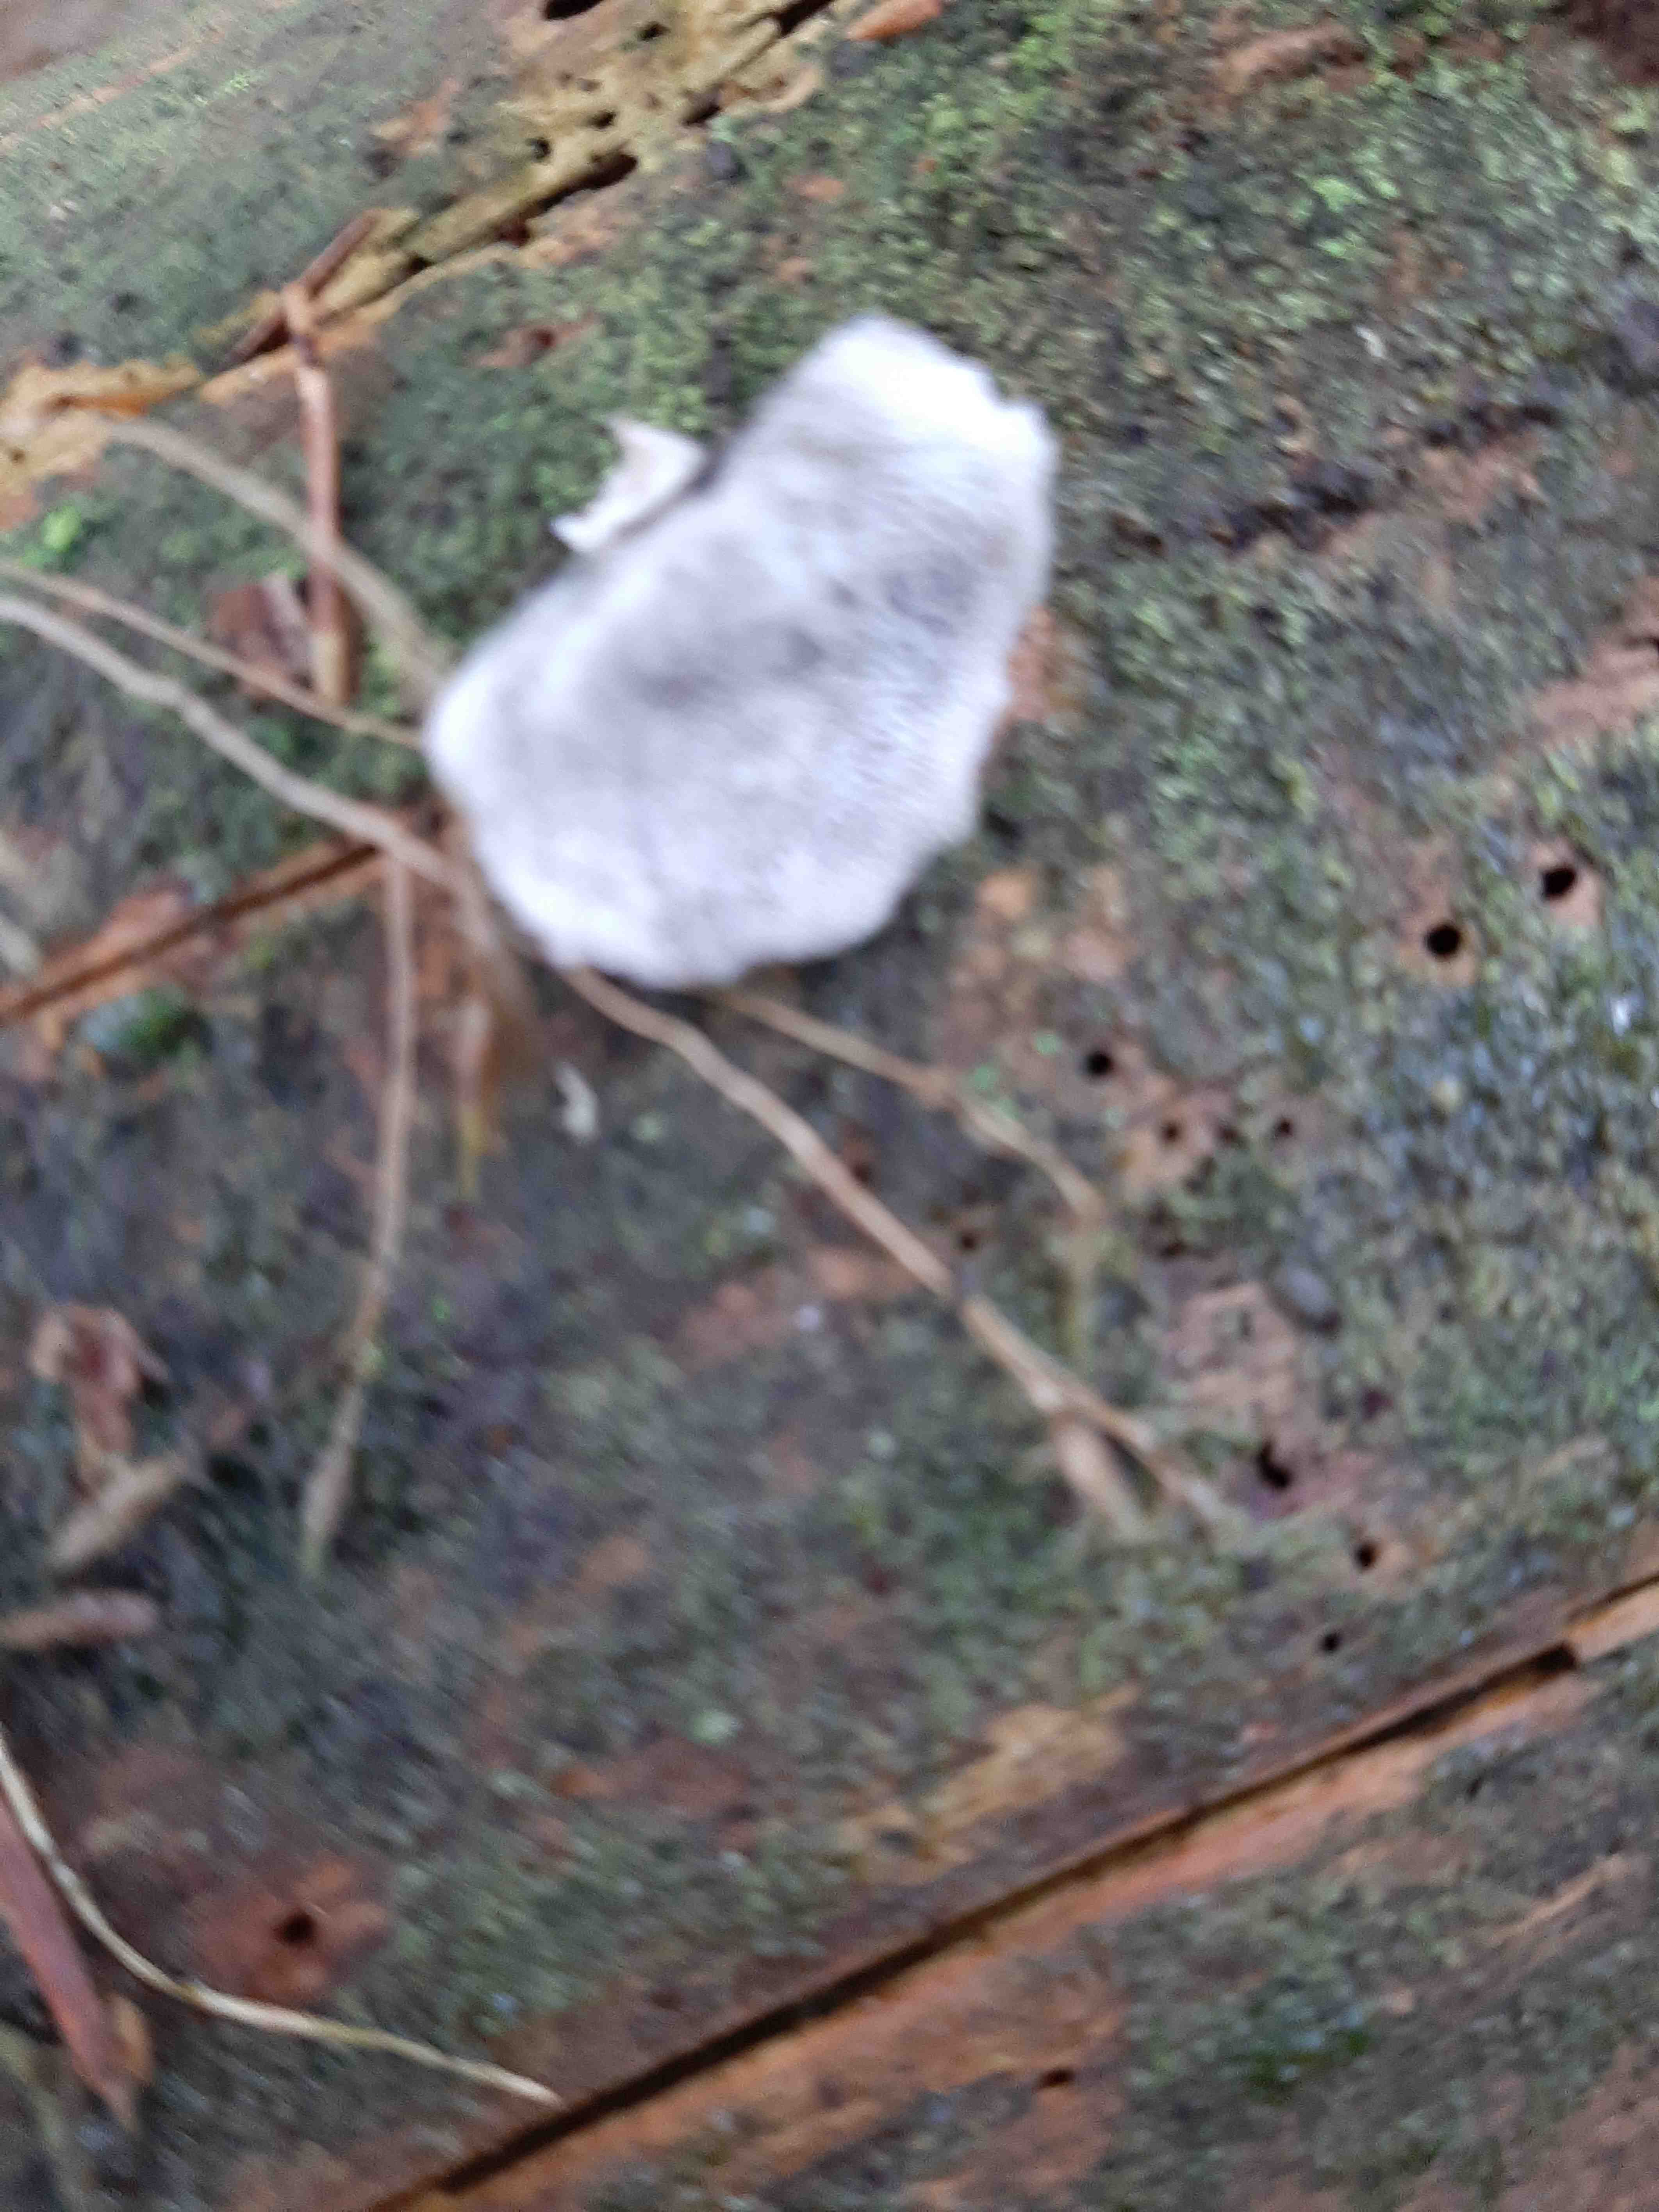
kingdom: Fungi
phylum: Basidiomycota
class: Agaricomycetes
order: Polyporales
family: Polyporaceae
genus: Cyanosporus
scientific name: Cyanosporus caesius
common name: blålig kødporesvamp
